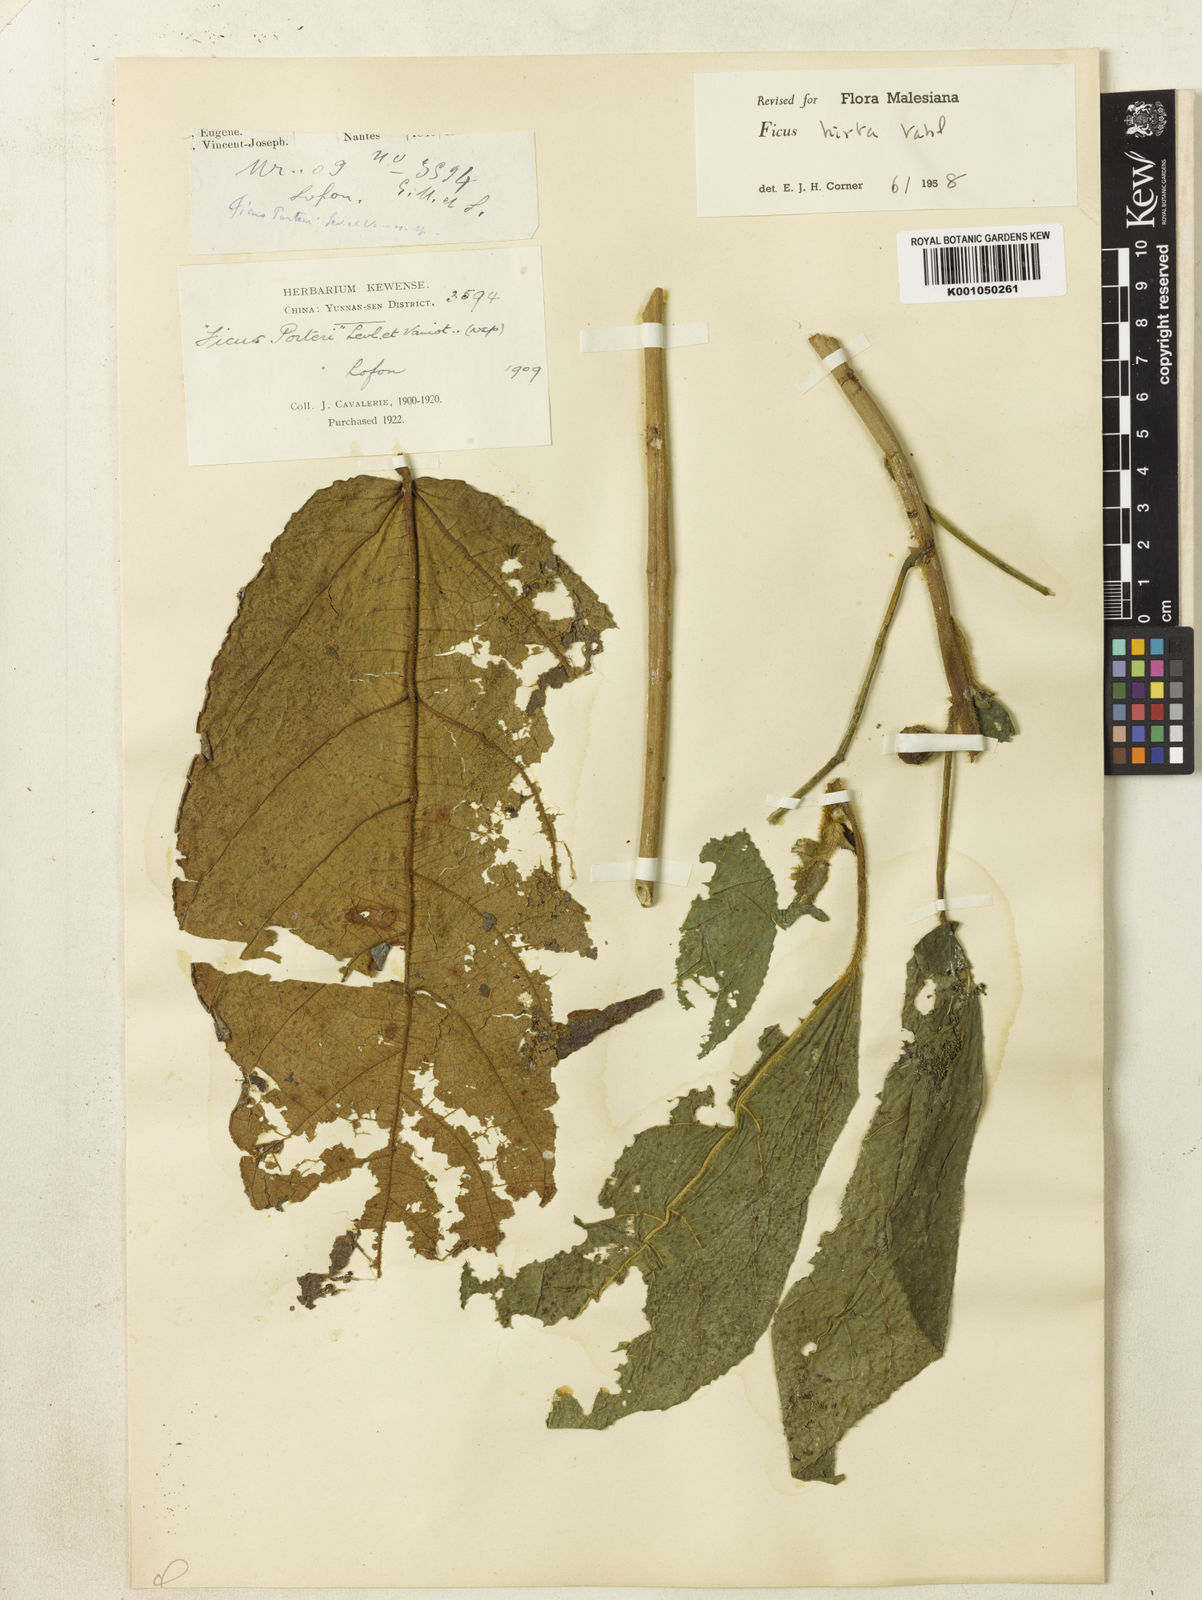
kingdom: Plantae
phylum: Tracheophyta
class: Magnoliopsida
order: Rosales
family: Moraceae
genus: Ficus
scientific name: Ficus simplicissima
